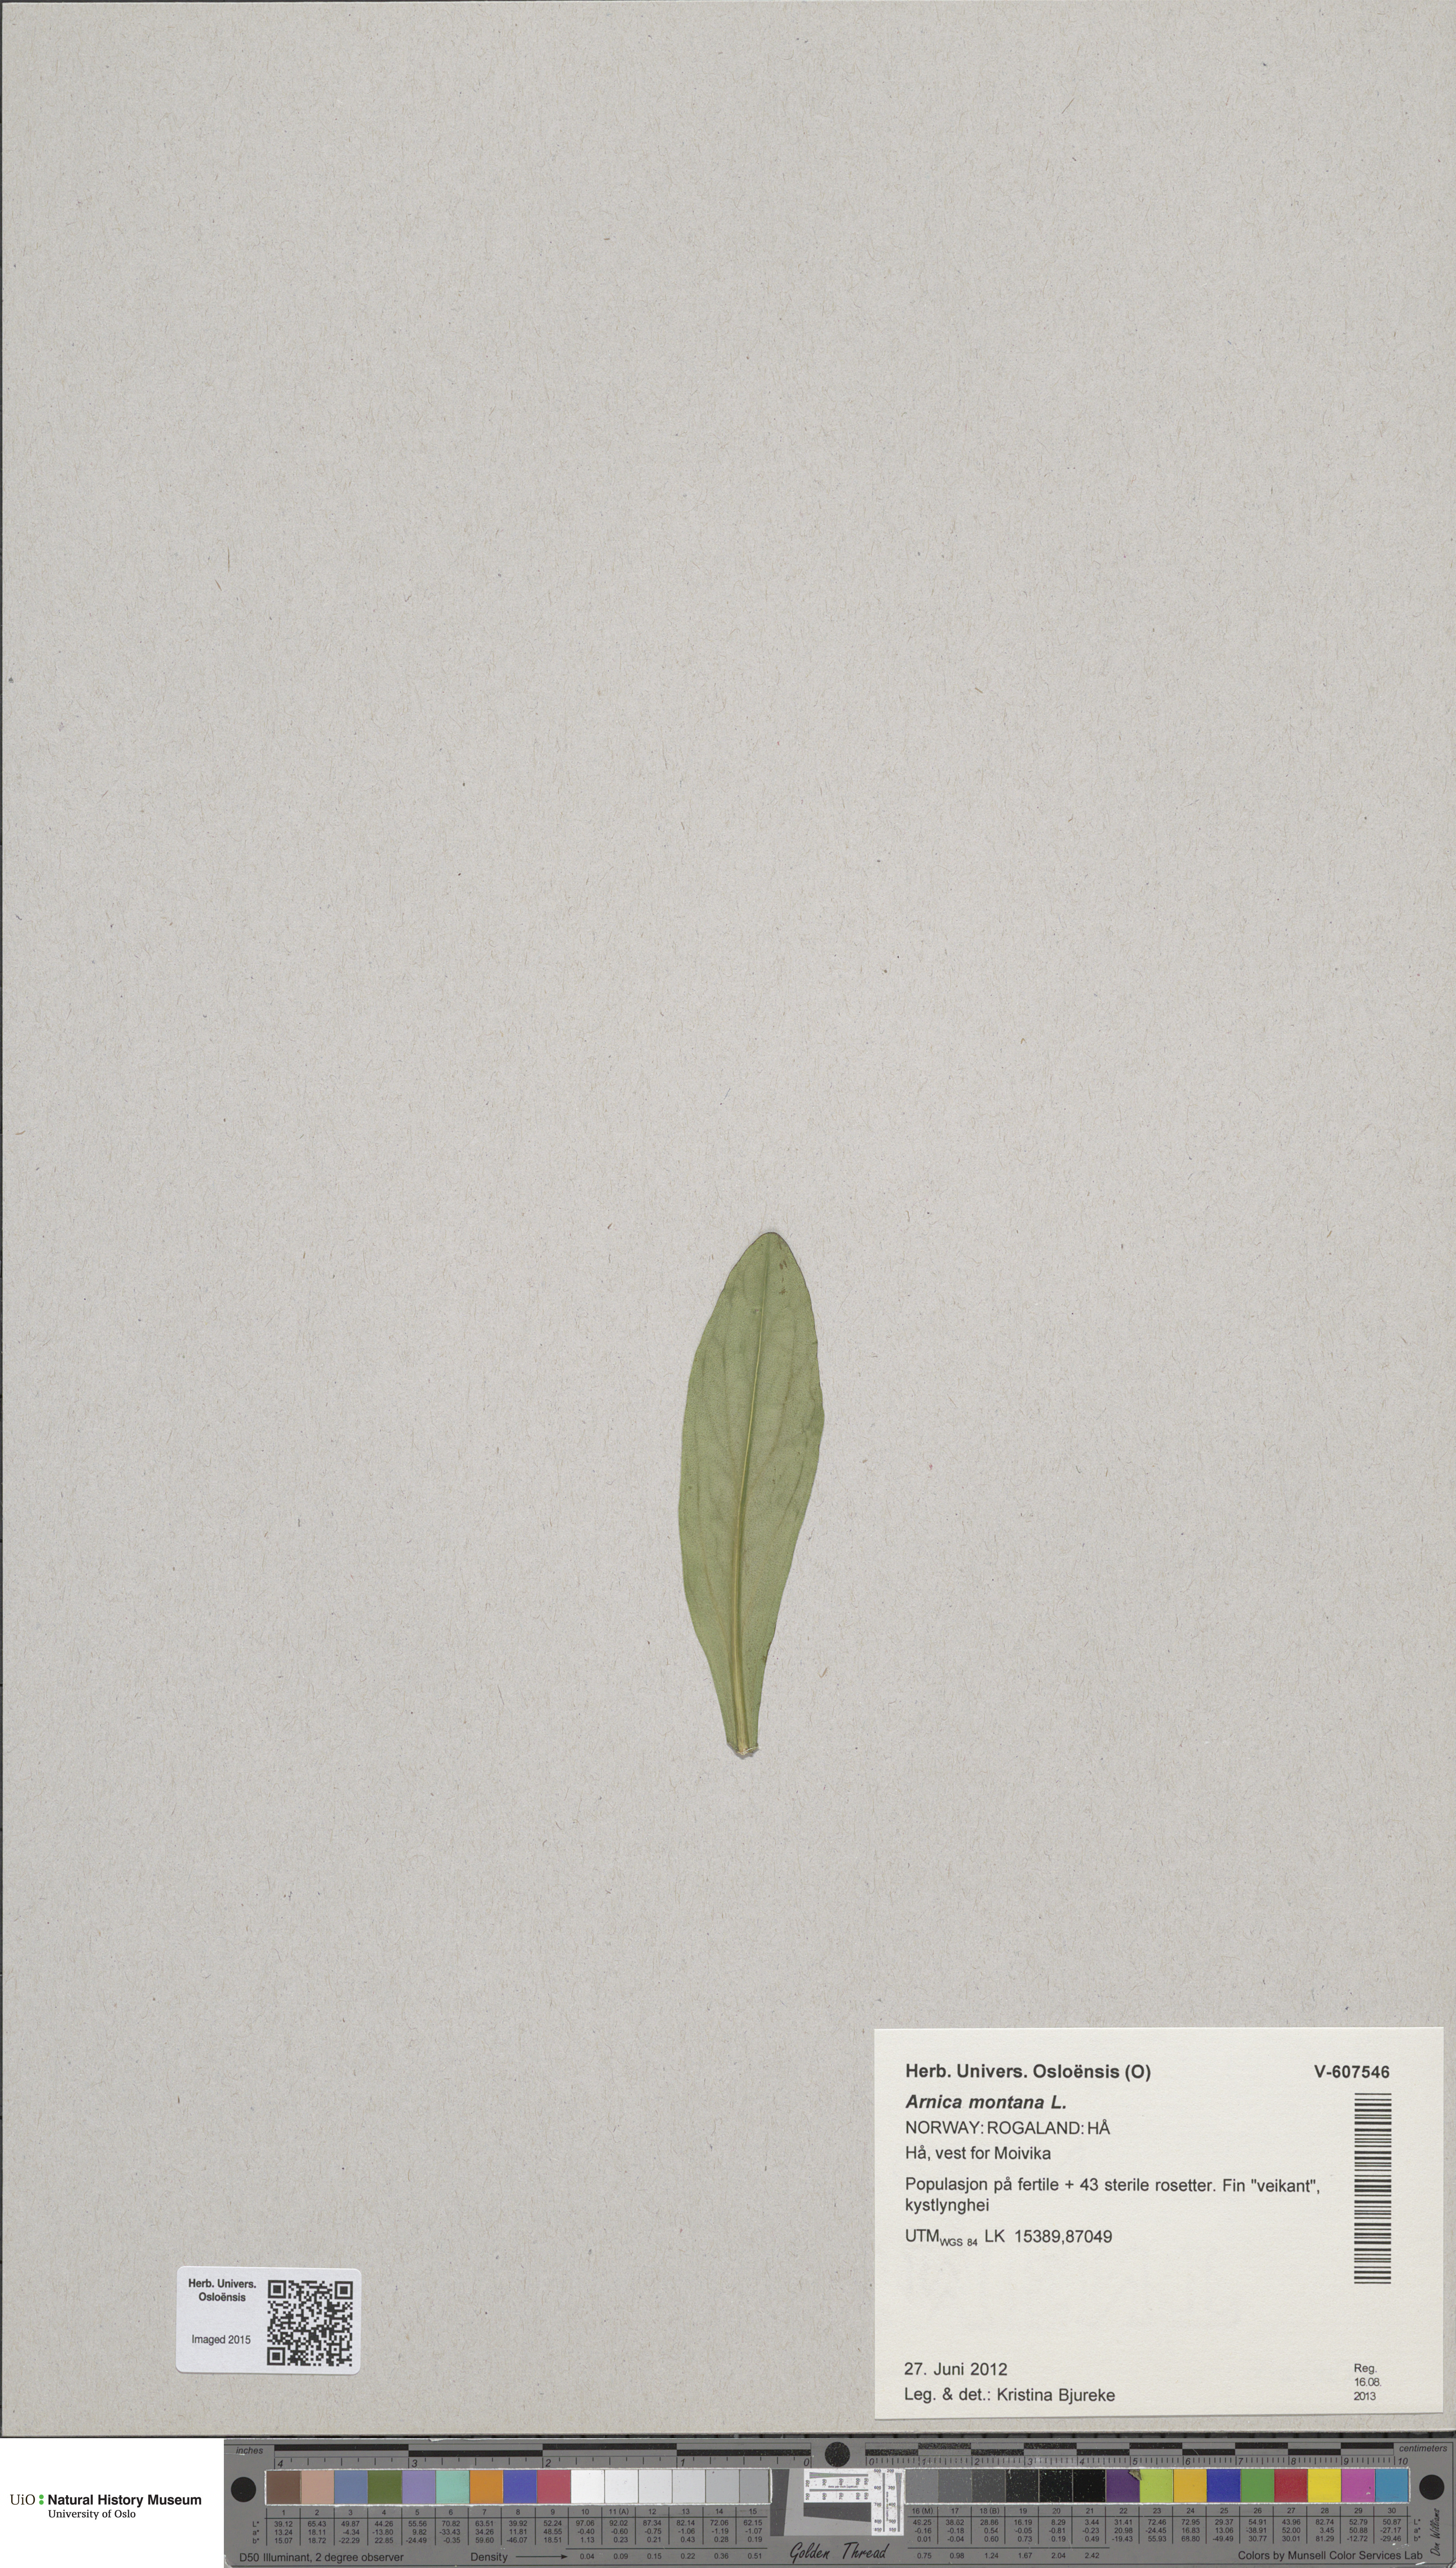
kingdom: Plantae
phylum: Tracheophyta
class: Magnoliopsida
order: Asterales
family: Asteraceae
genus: Arnica
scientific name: Arnica montana
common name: Leopard's bane
